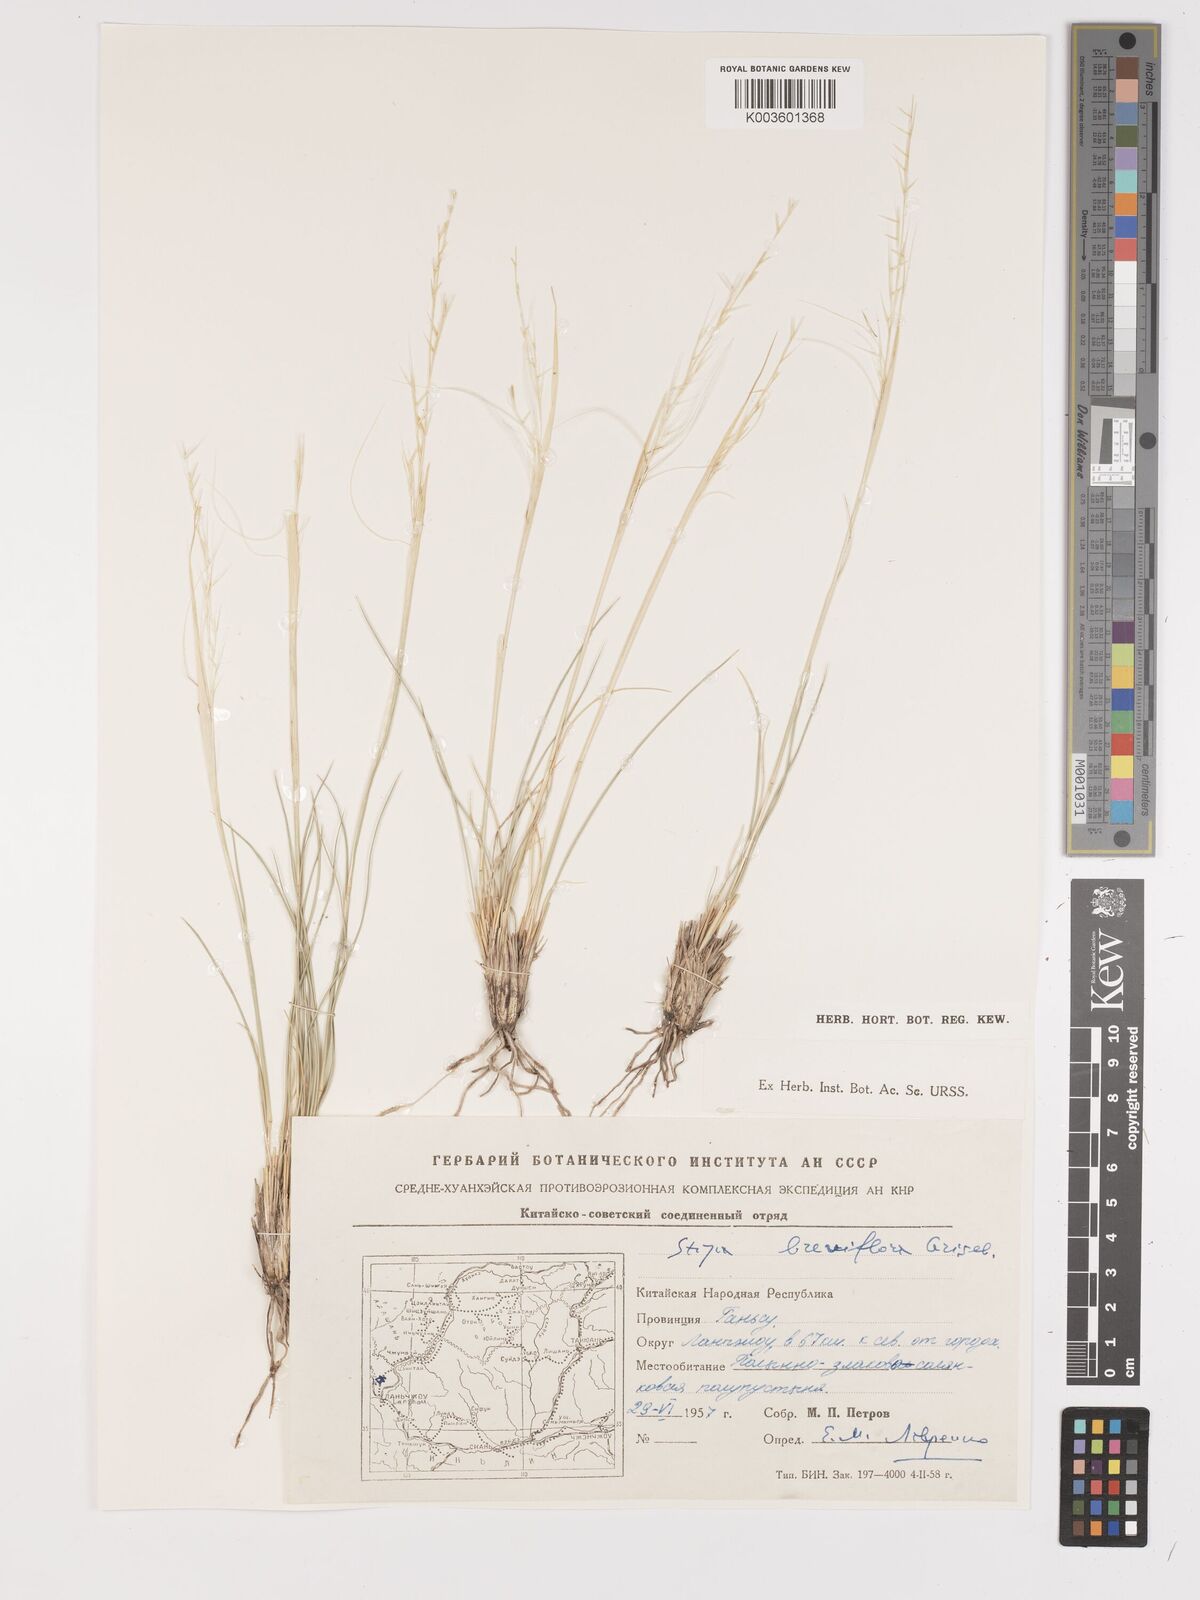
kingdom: Plantae
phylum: Tracheophyta
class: Liliopsida
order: Poales
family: Poaceae
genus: Stipa
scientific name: Stipa breviflora
